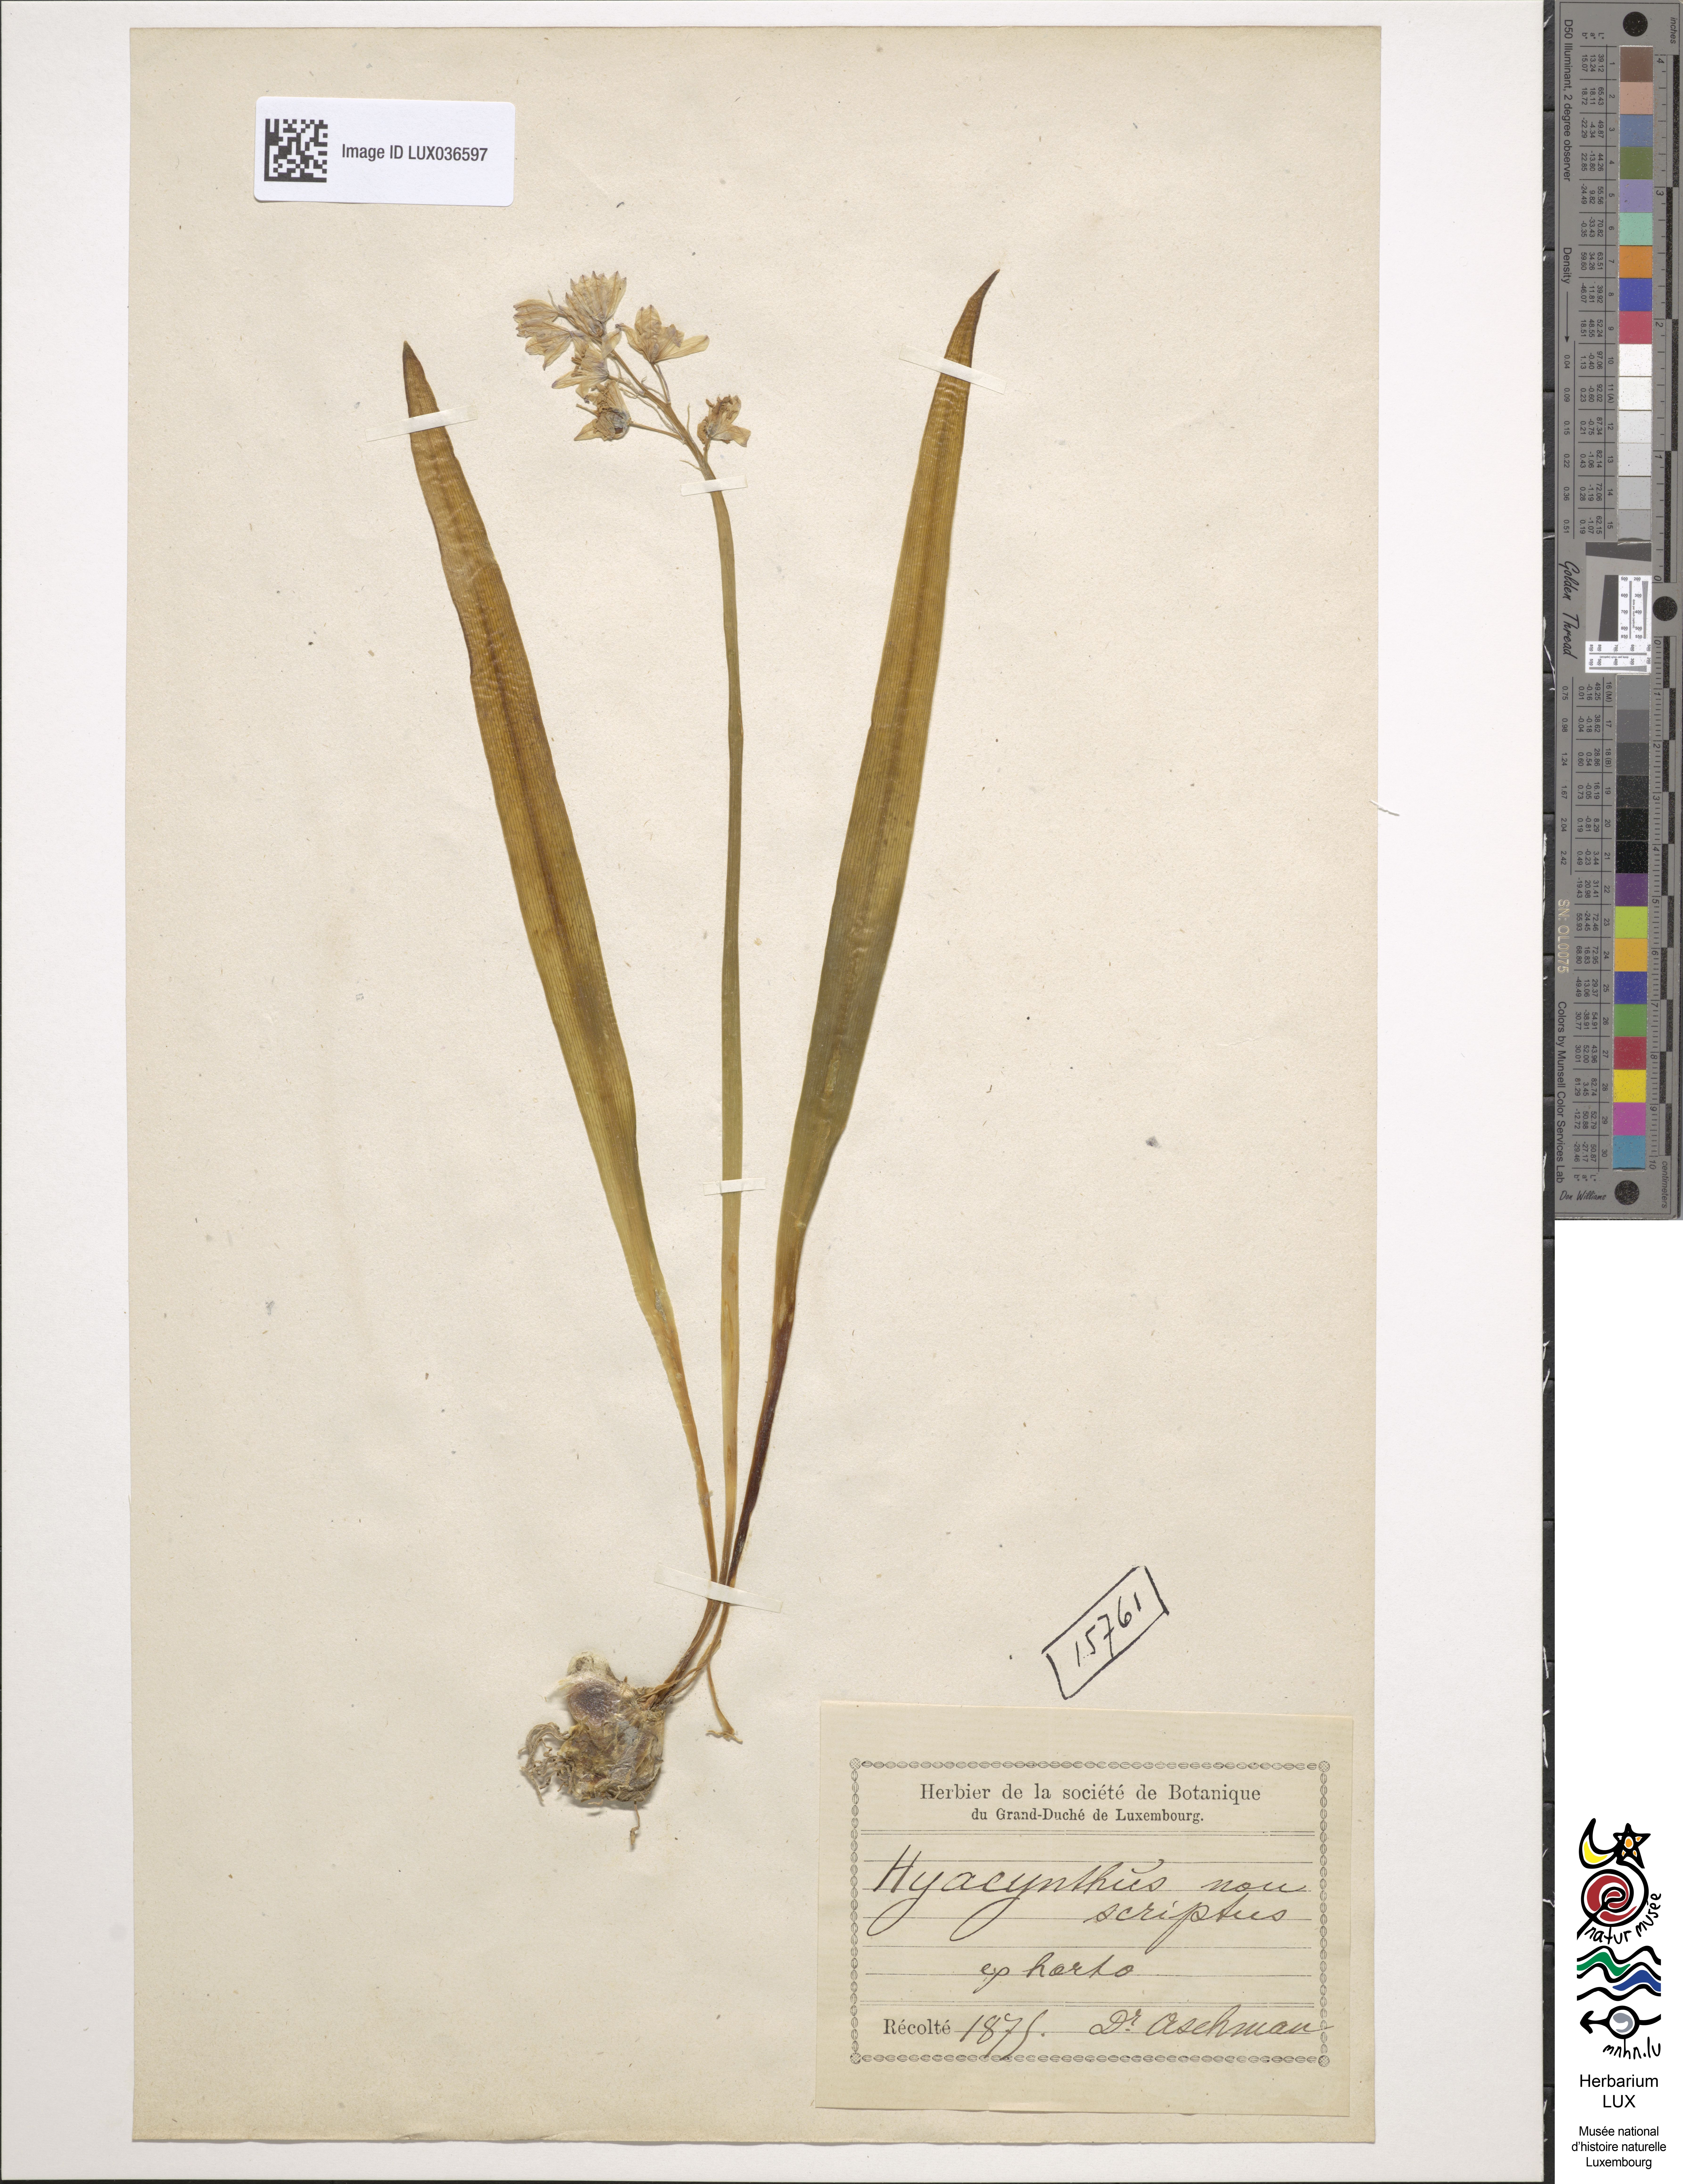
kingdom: Plantae
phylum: Tracheophyta
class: Liliopsida
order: Asparagales
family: Asparagaceae
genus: Hyacinthoides
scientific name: Hyacinthoides non-scripta
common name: Bluebell
